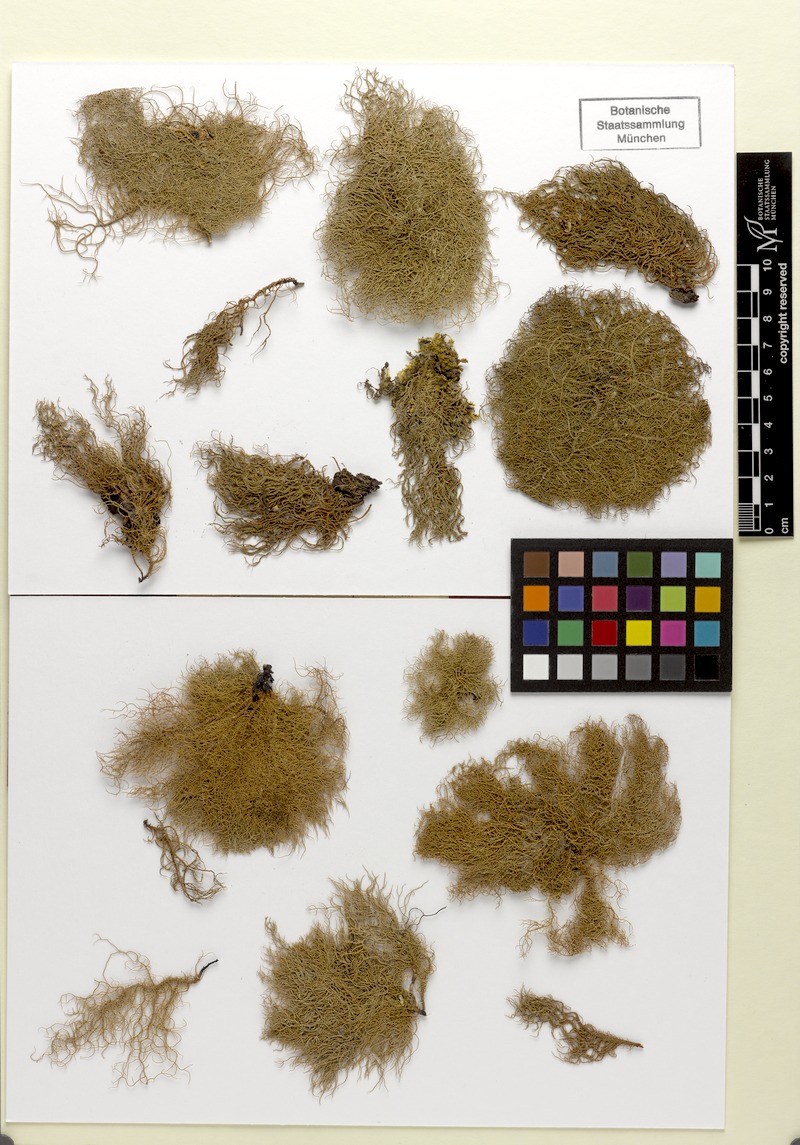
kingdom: Fungi
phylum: Ascomycota
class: Lecanoromycetes
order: Lecanorales
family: Parmeliaceae
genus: Dolichousnea
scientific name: Dolichousnea longissima
